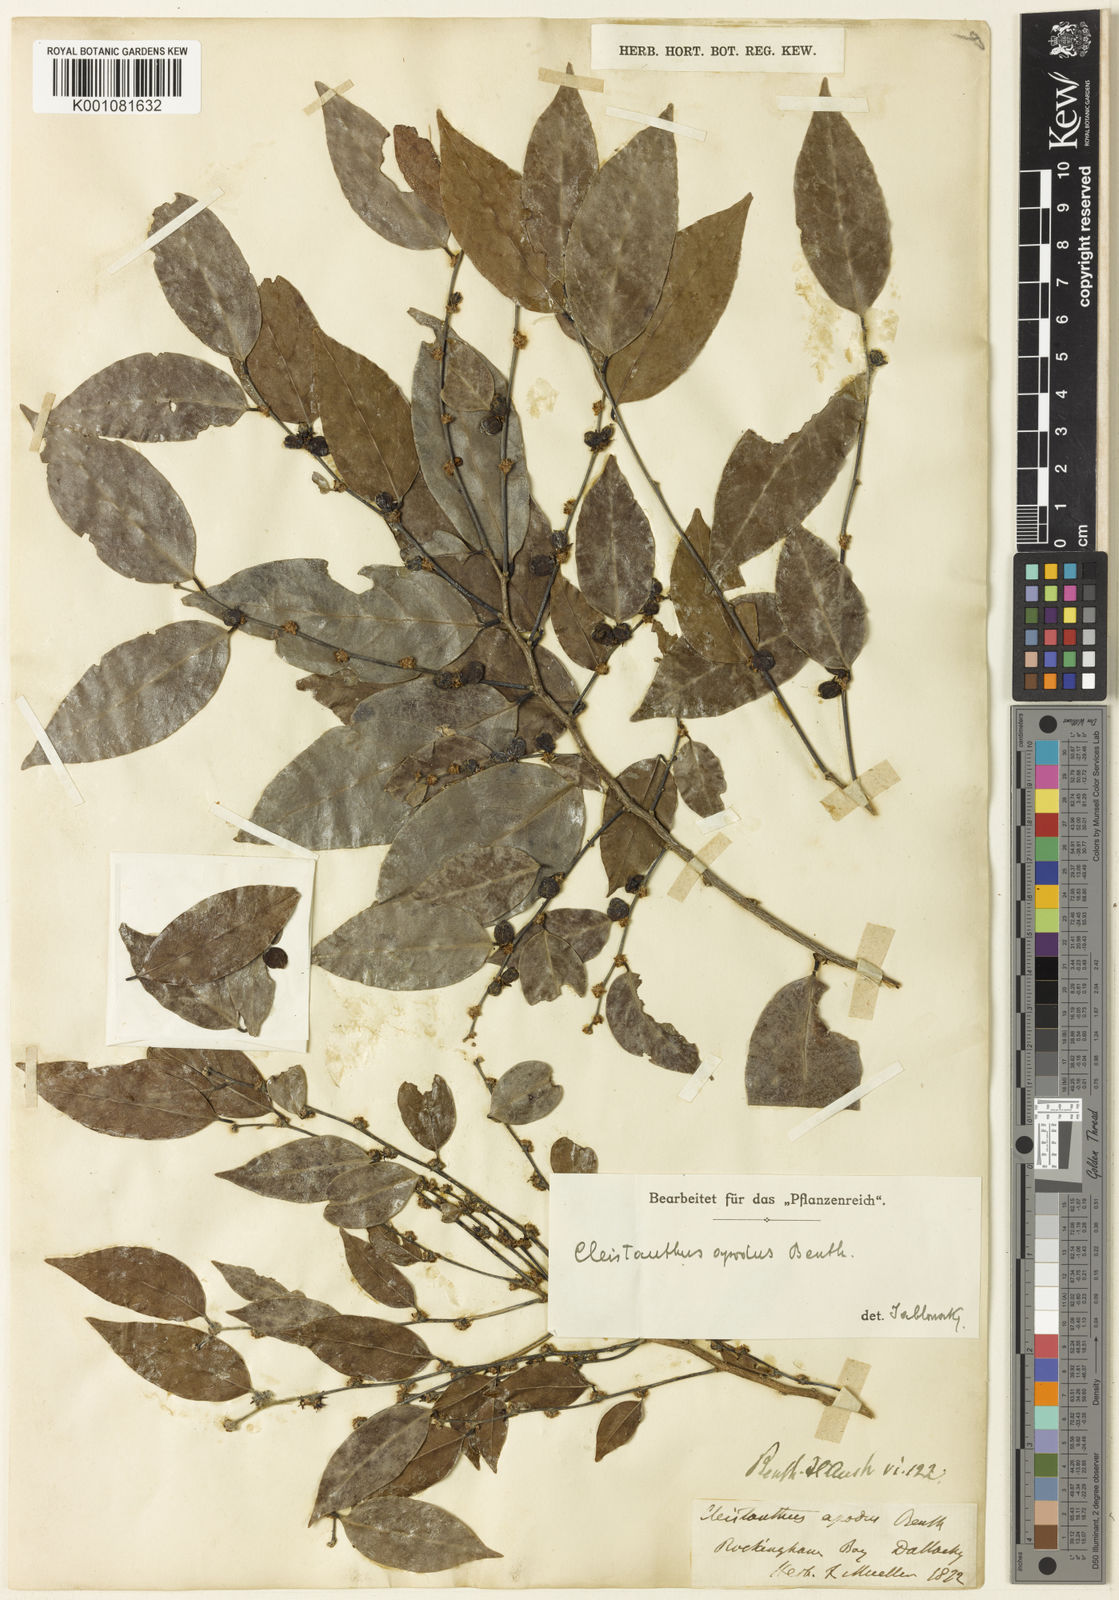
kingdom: Plantae
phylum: Tracheophyta
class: Magnoliopsida
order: Malpighiales
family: Phyllanthaceae
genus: Cleistanthus
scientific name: Cleistanthus semiopacus
